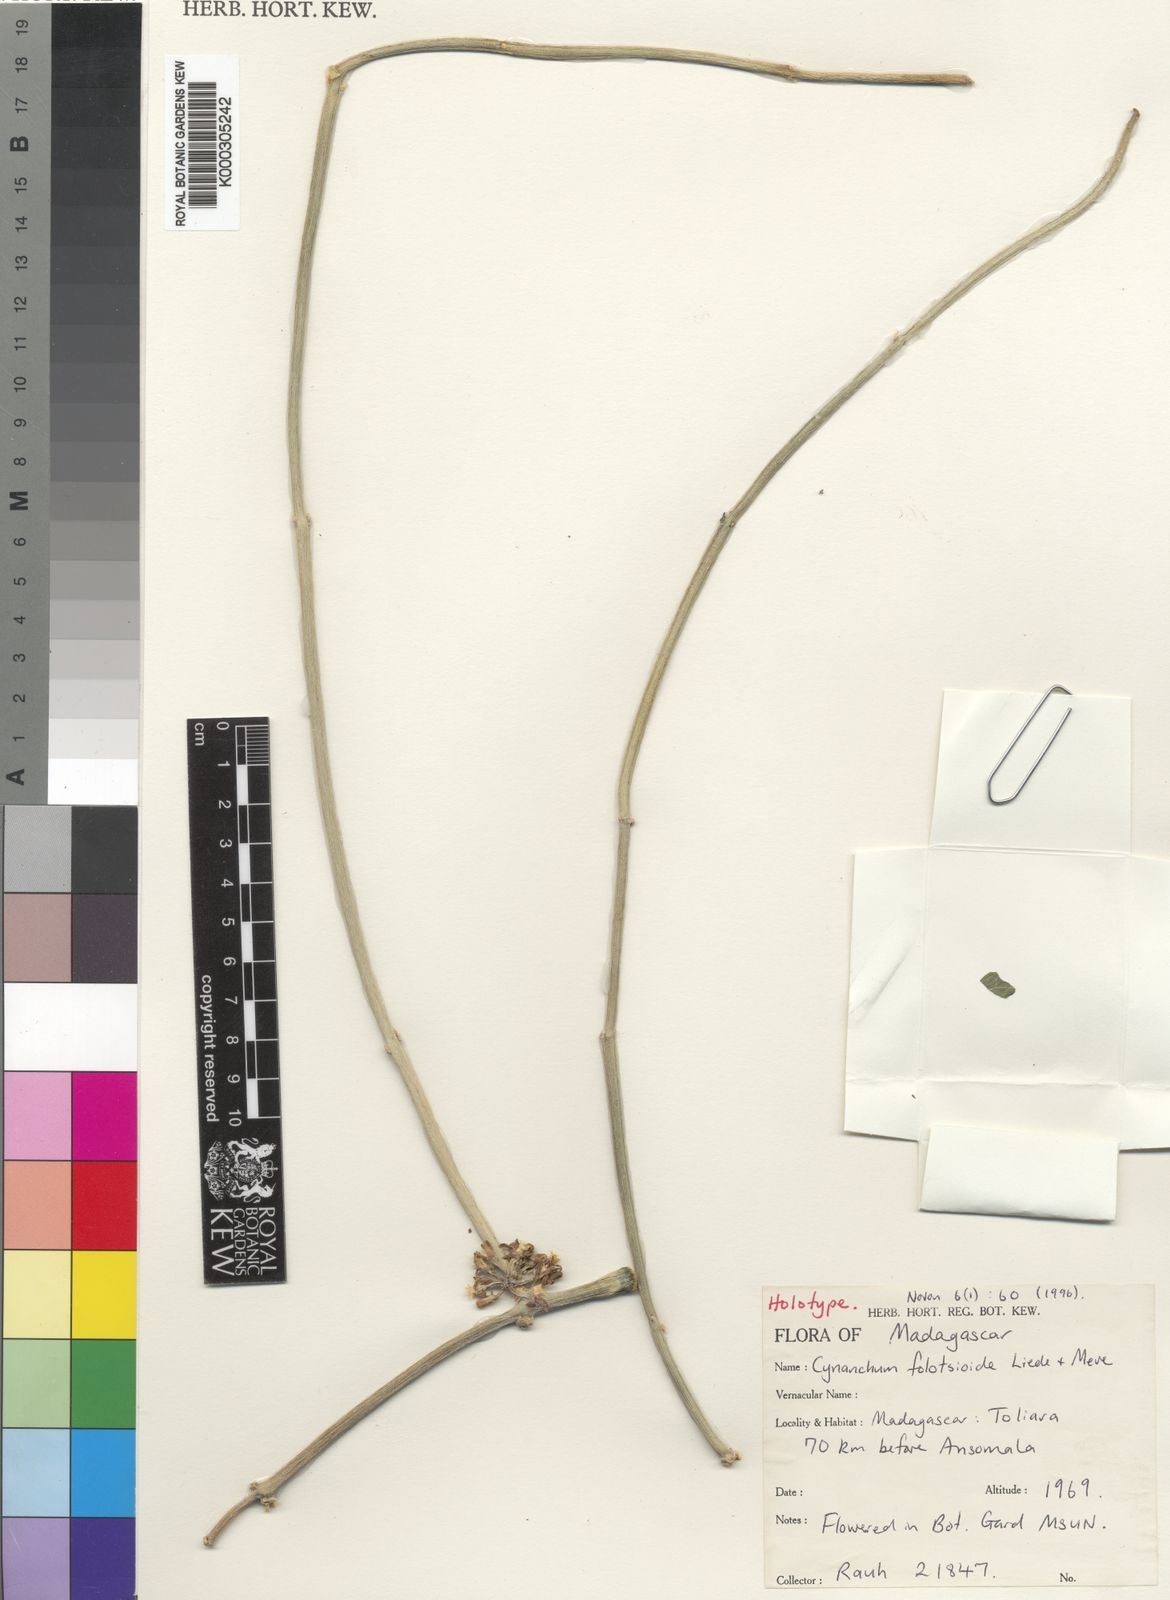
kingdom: Plantae
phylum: Tracheophyta
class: Magnoliopsida
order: Gentianales
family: Apocynaceae
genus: Cynanchum
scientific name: Cynanchum folotsioides
